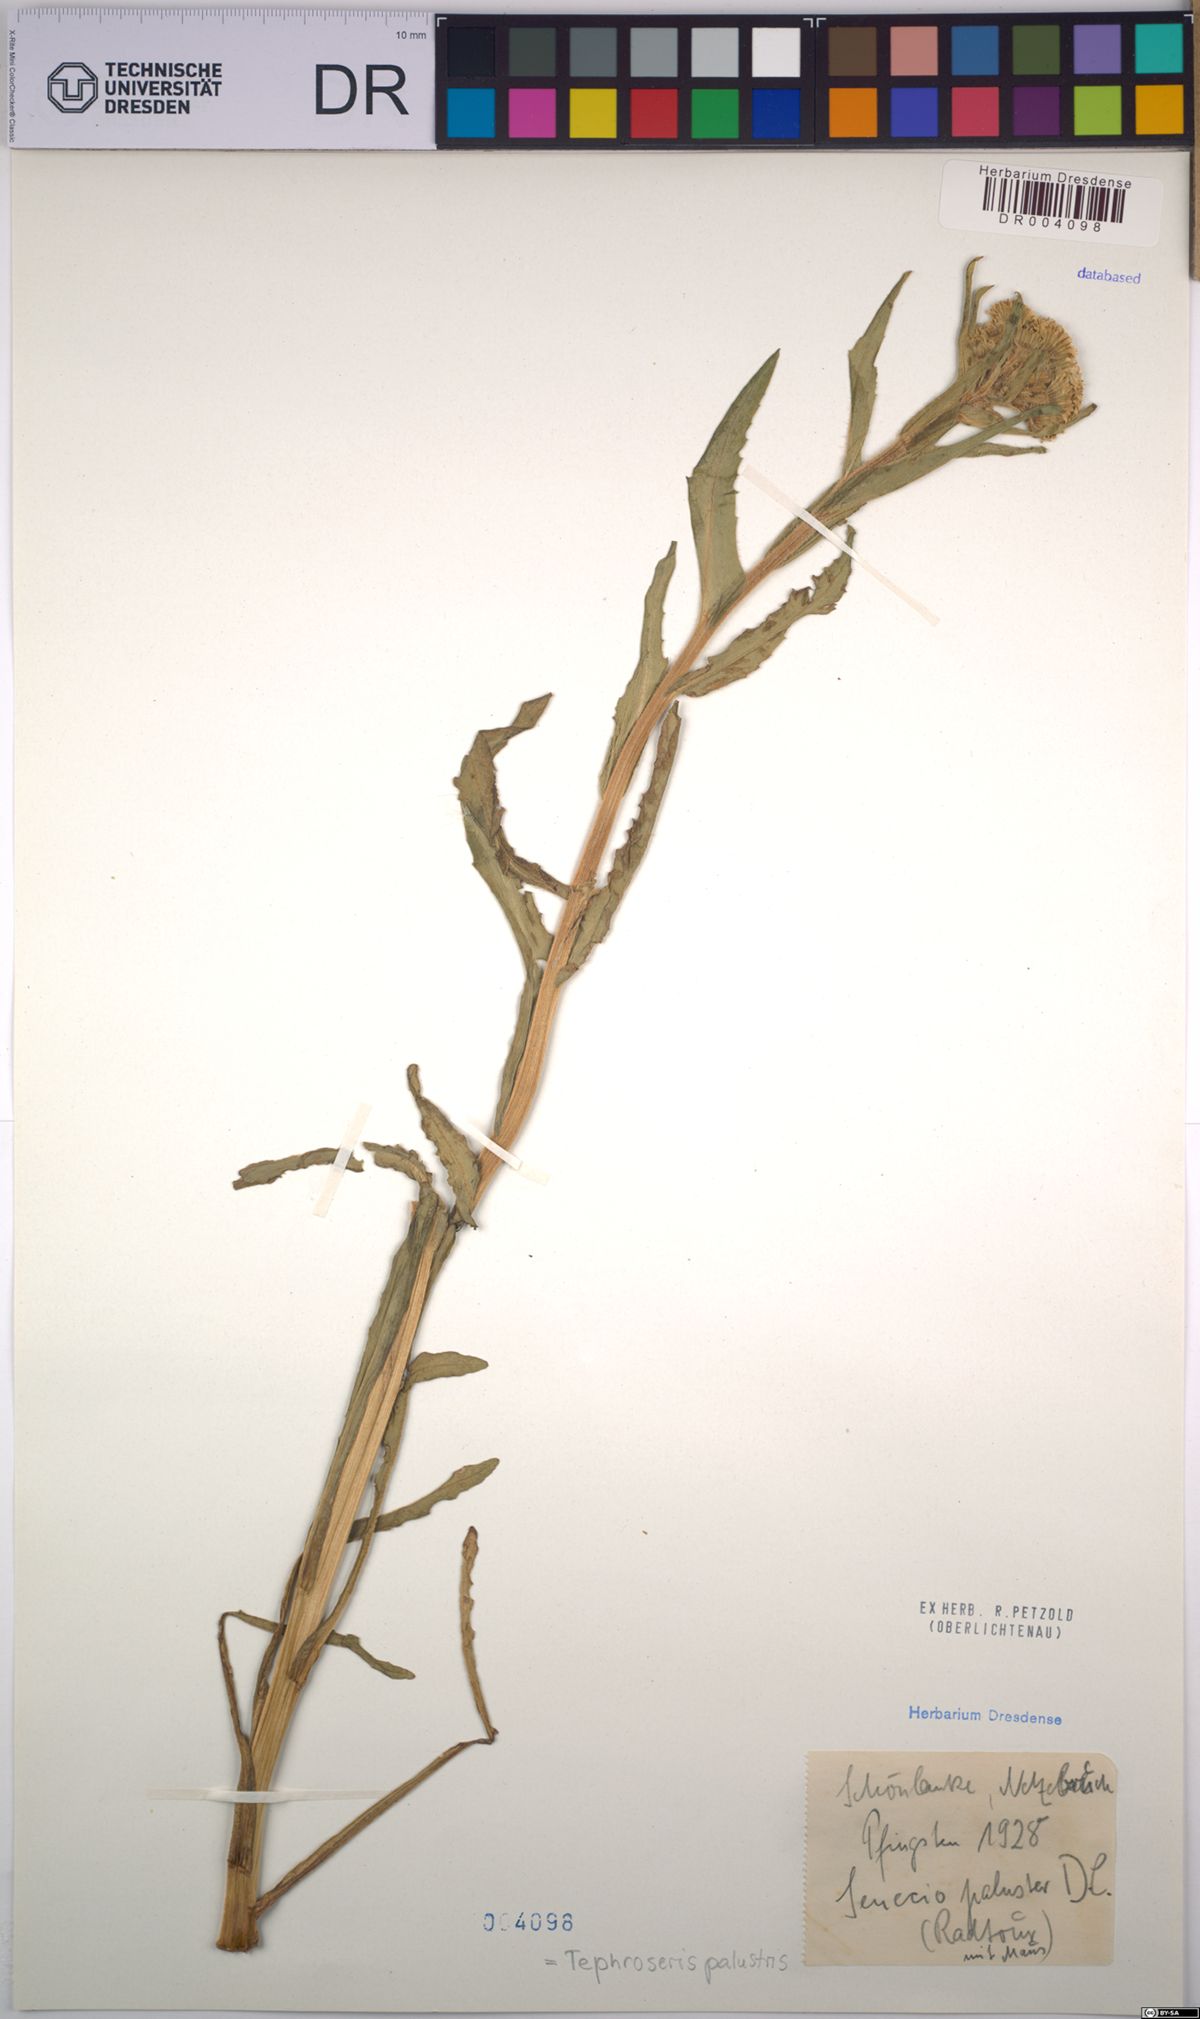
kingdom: Plantae
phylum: Tracheophyta
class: Magnoliopsida
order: Asterales
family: Asteraceae
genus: Tephroseris
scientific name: Tephroseris palustris
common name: Marsh fleawort
